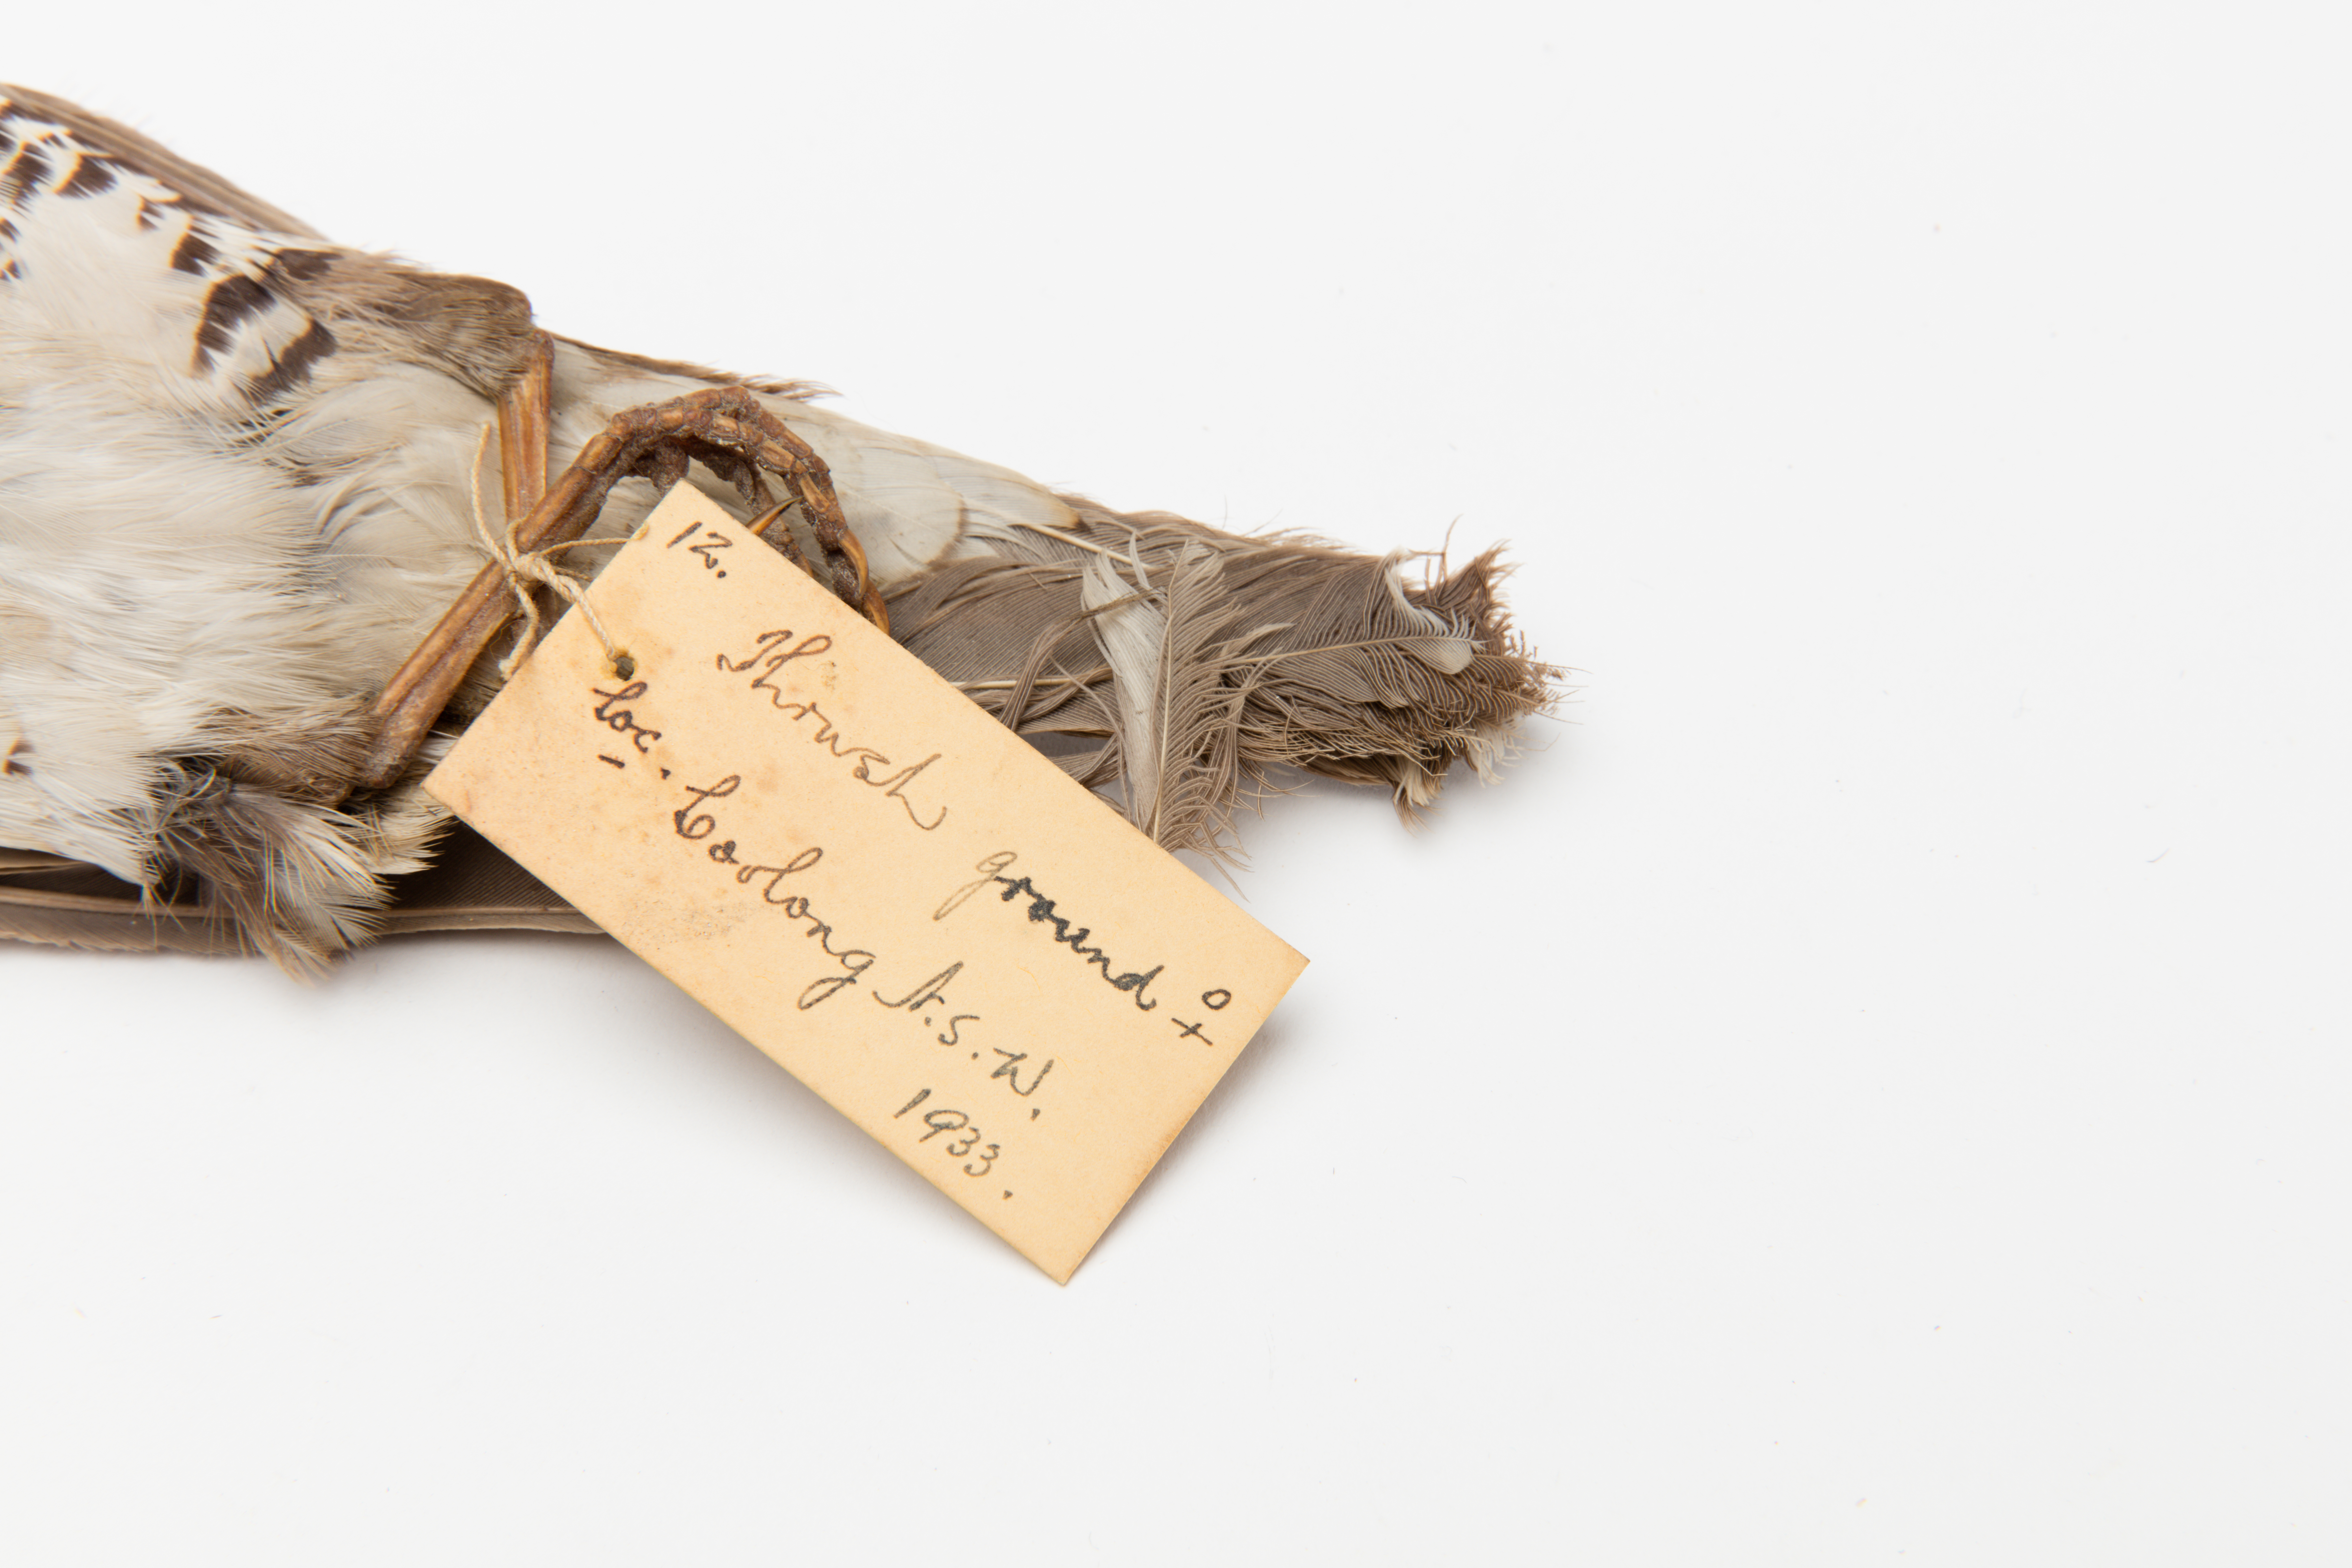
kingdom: Animalia
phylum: Chordata
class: Aves
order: Passeriformes
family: Turdidae
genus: Zoothera
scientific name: Zoothera lunulata
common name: Bassian thrush
